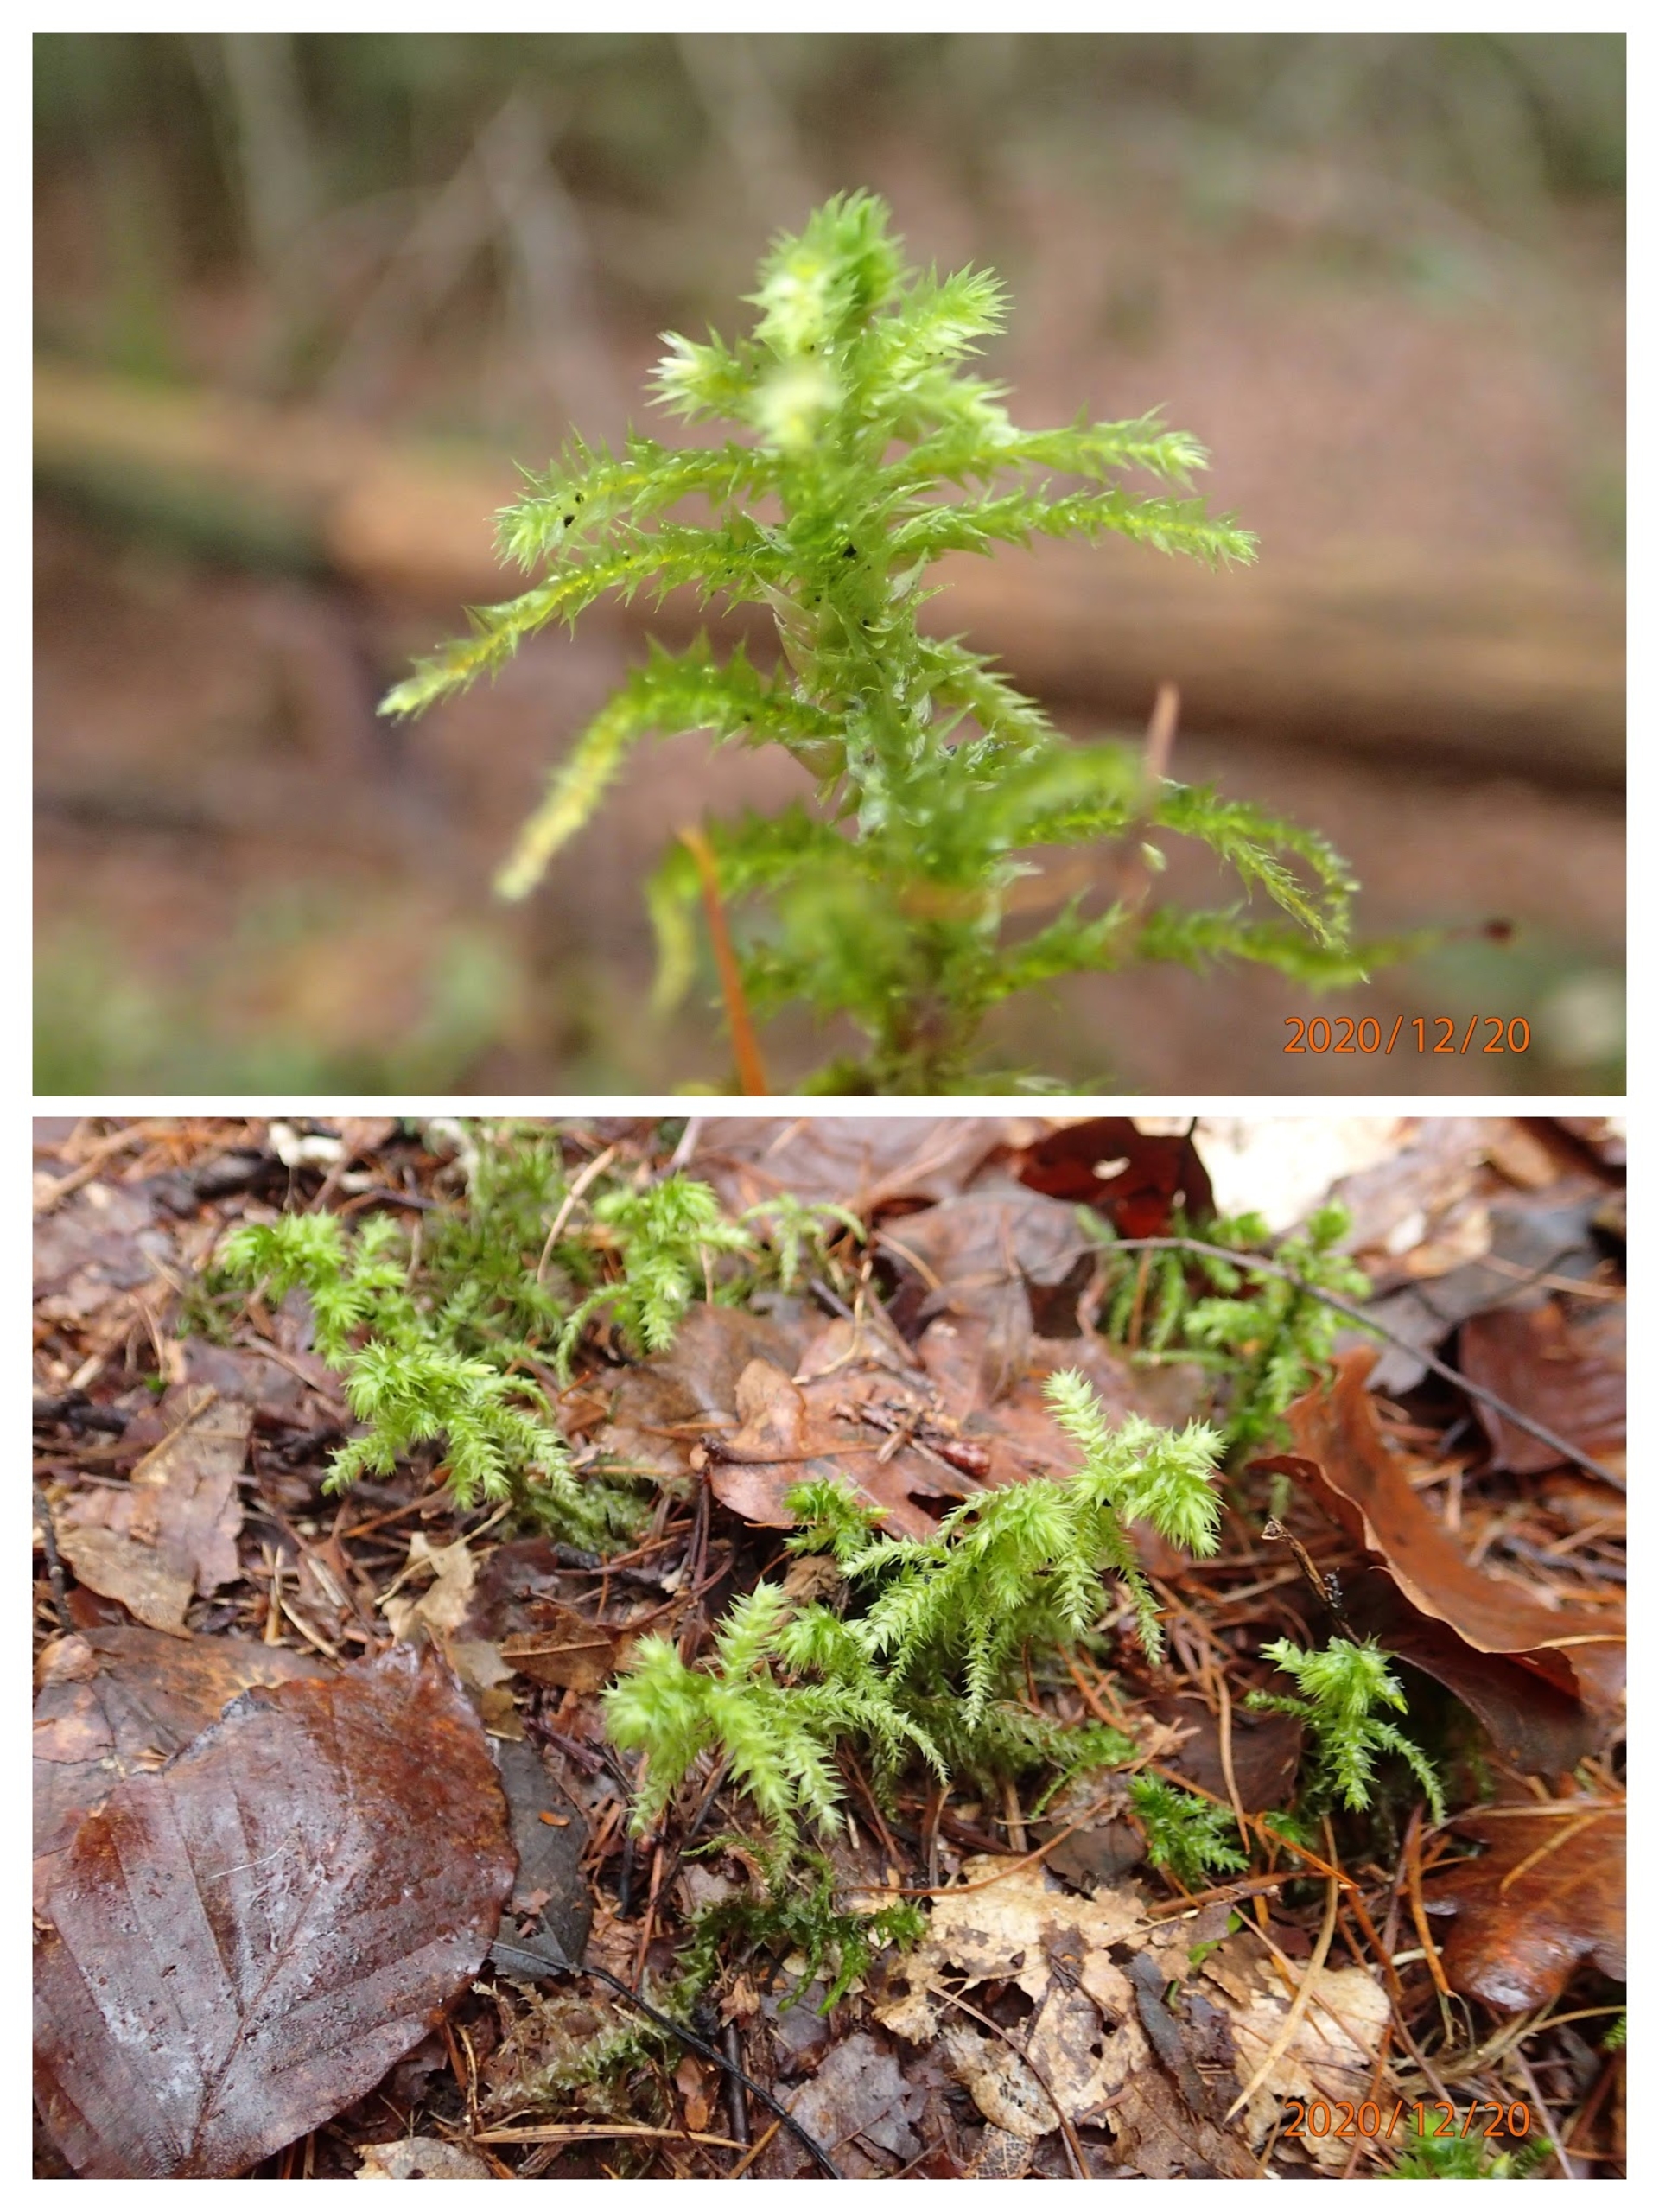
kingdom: Plantae
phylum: Bryophyta
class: Bryopsida
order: Hypnales
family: Hylocomiaceae
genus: Hylocomiadelphus
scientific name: Hylocomiadelphus triquetrus
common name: Stor kransemos
